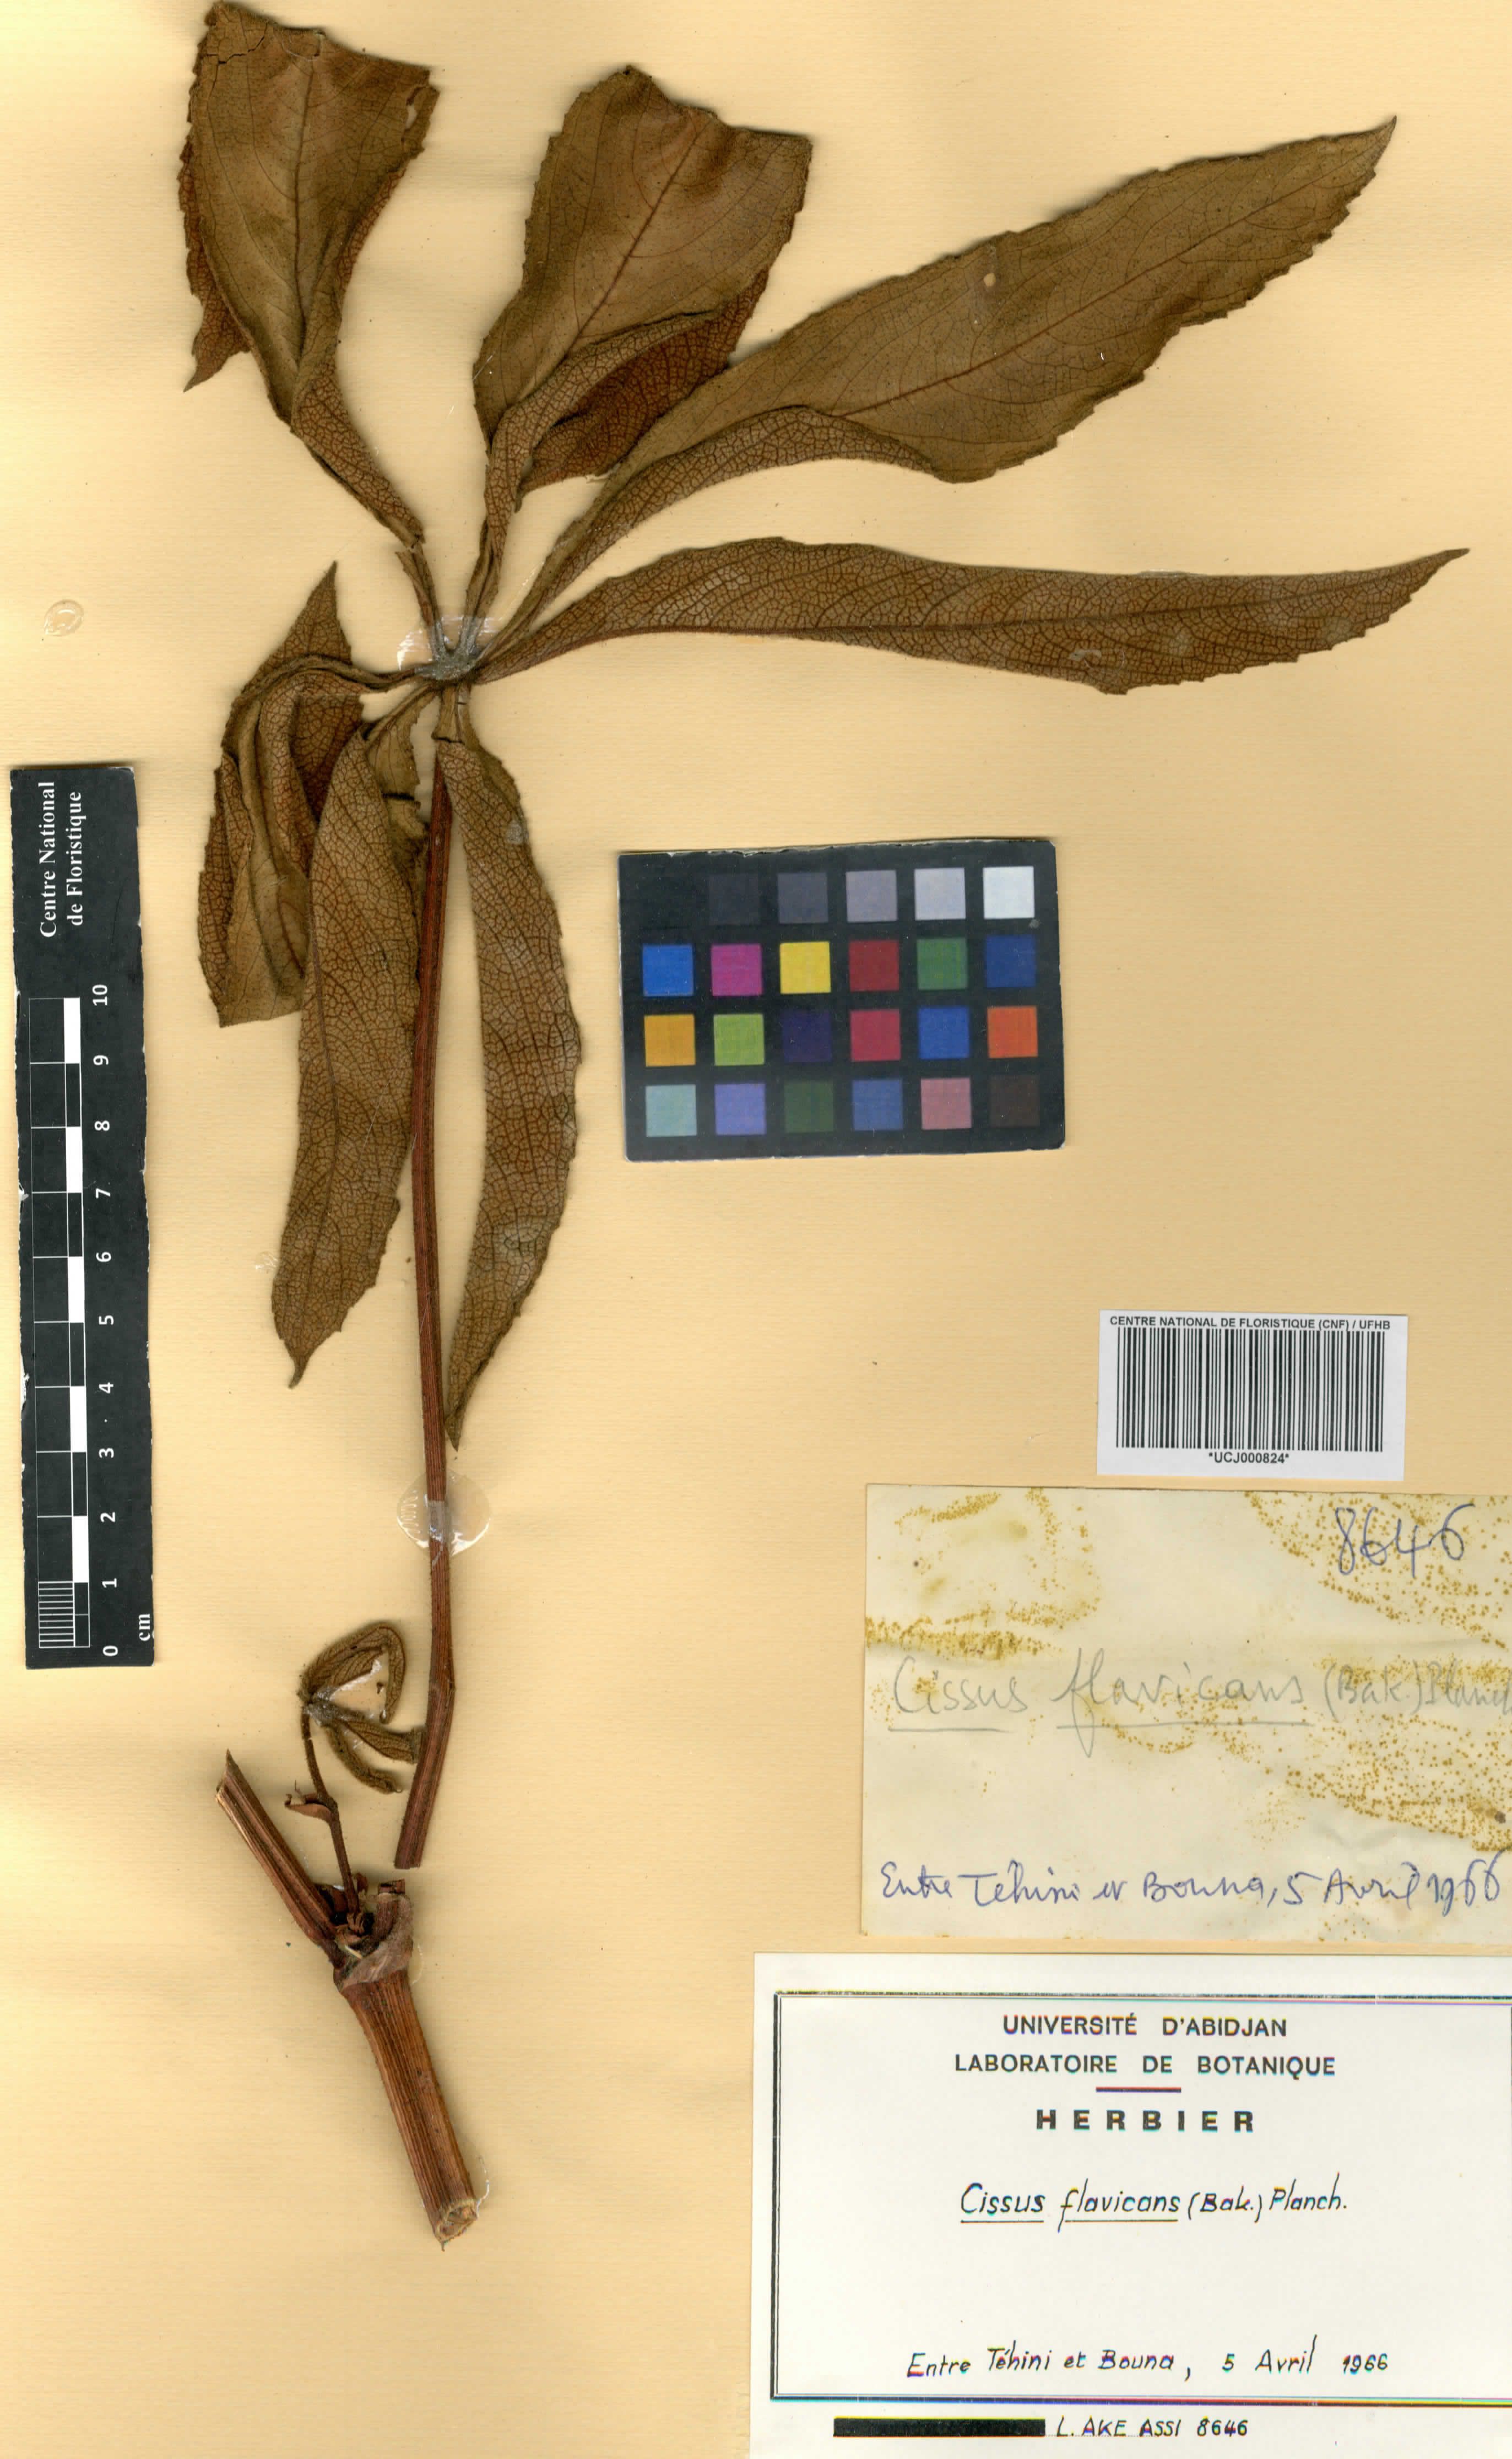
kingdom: Plantae
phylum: Tracheophyta
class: Magnoliopsida
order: Vitales
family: Vitaceae
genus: Cissus
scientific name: Cissus doeringii
